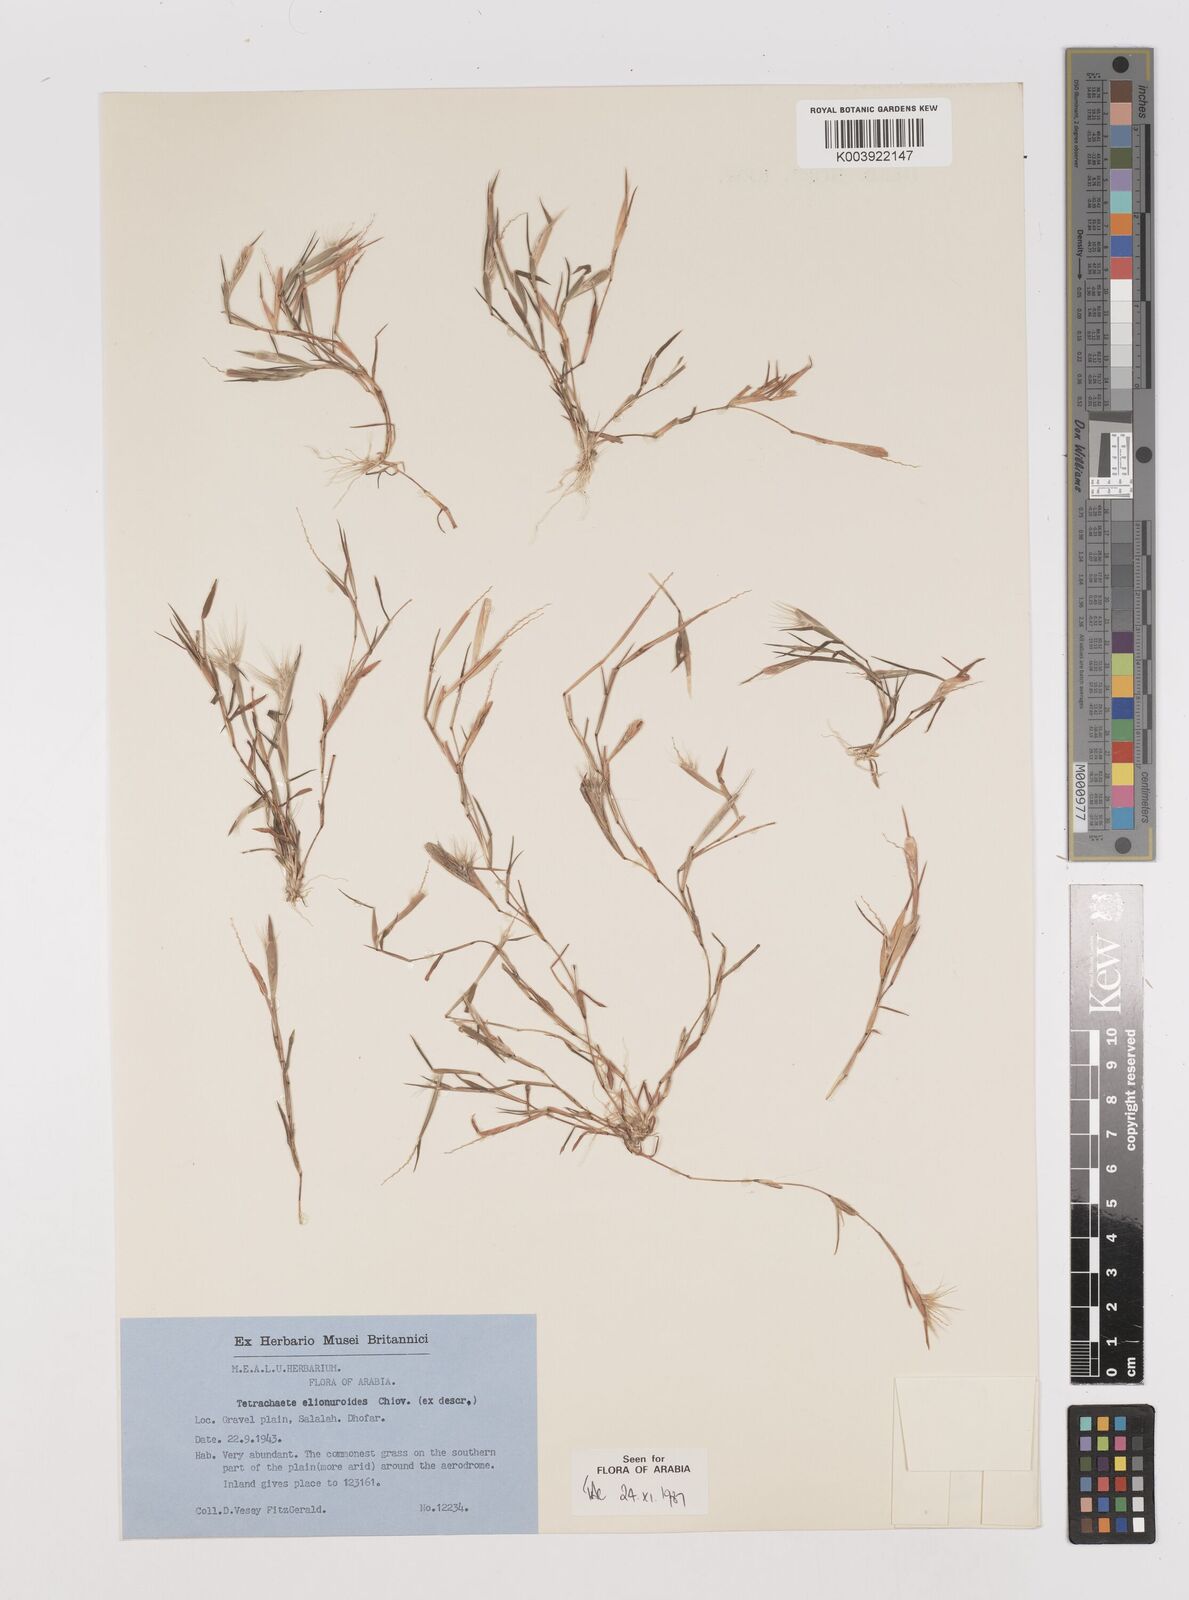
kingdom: Plantae
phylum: Tracheophyta
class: Liliopsida
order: Poales
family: Poaceae
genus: Tetrachaete
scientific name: Tetrachaete elionuroides
